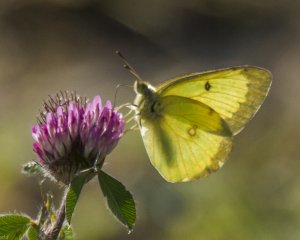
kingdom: Animalia
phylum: Arthropoda
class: Insecta
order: Lepidoptera
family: Pieridae
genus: Colias
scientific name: Colias philodice
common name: Clouded Sulphur
